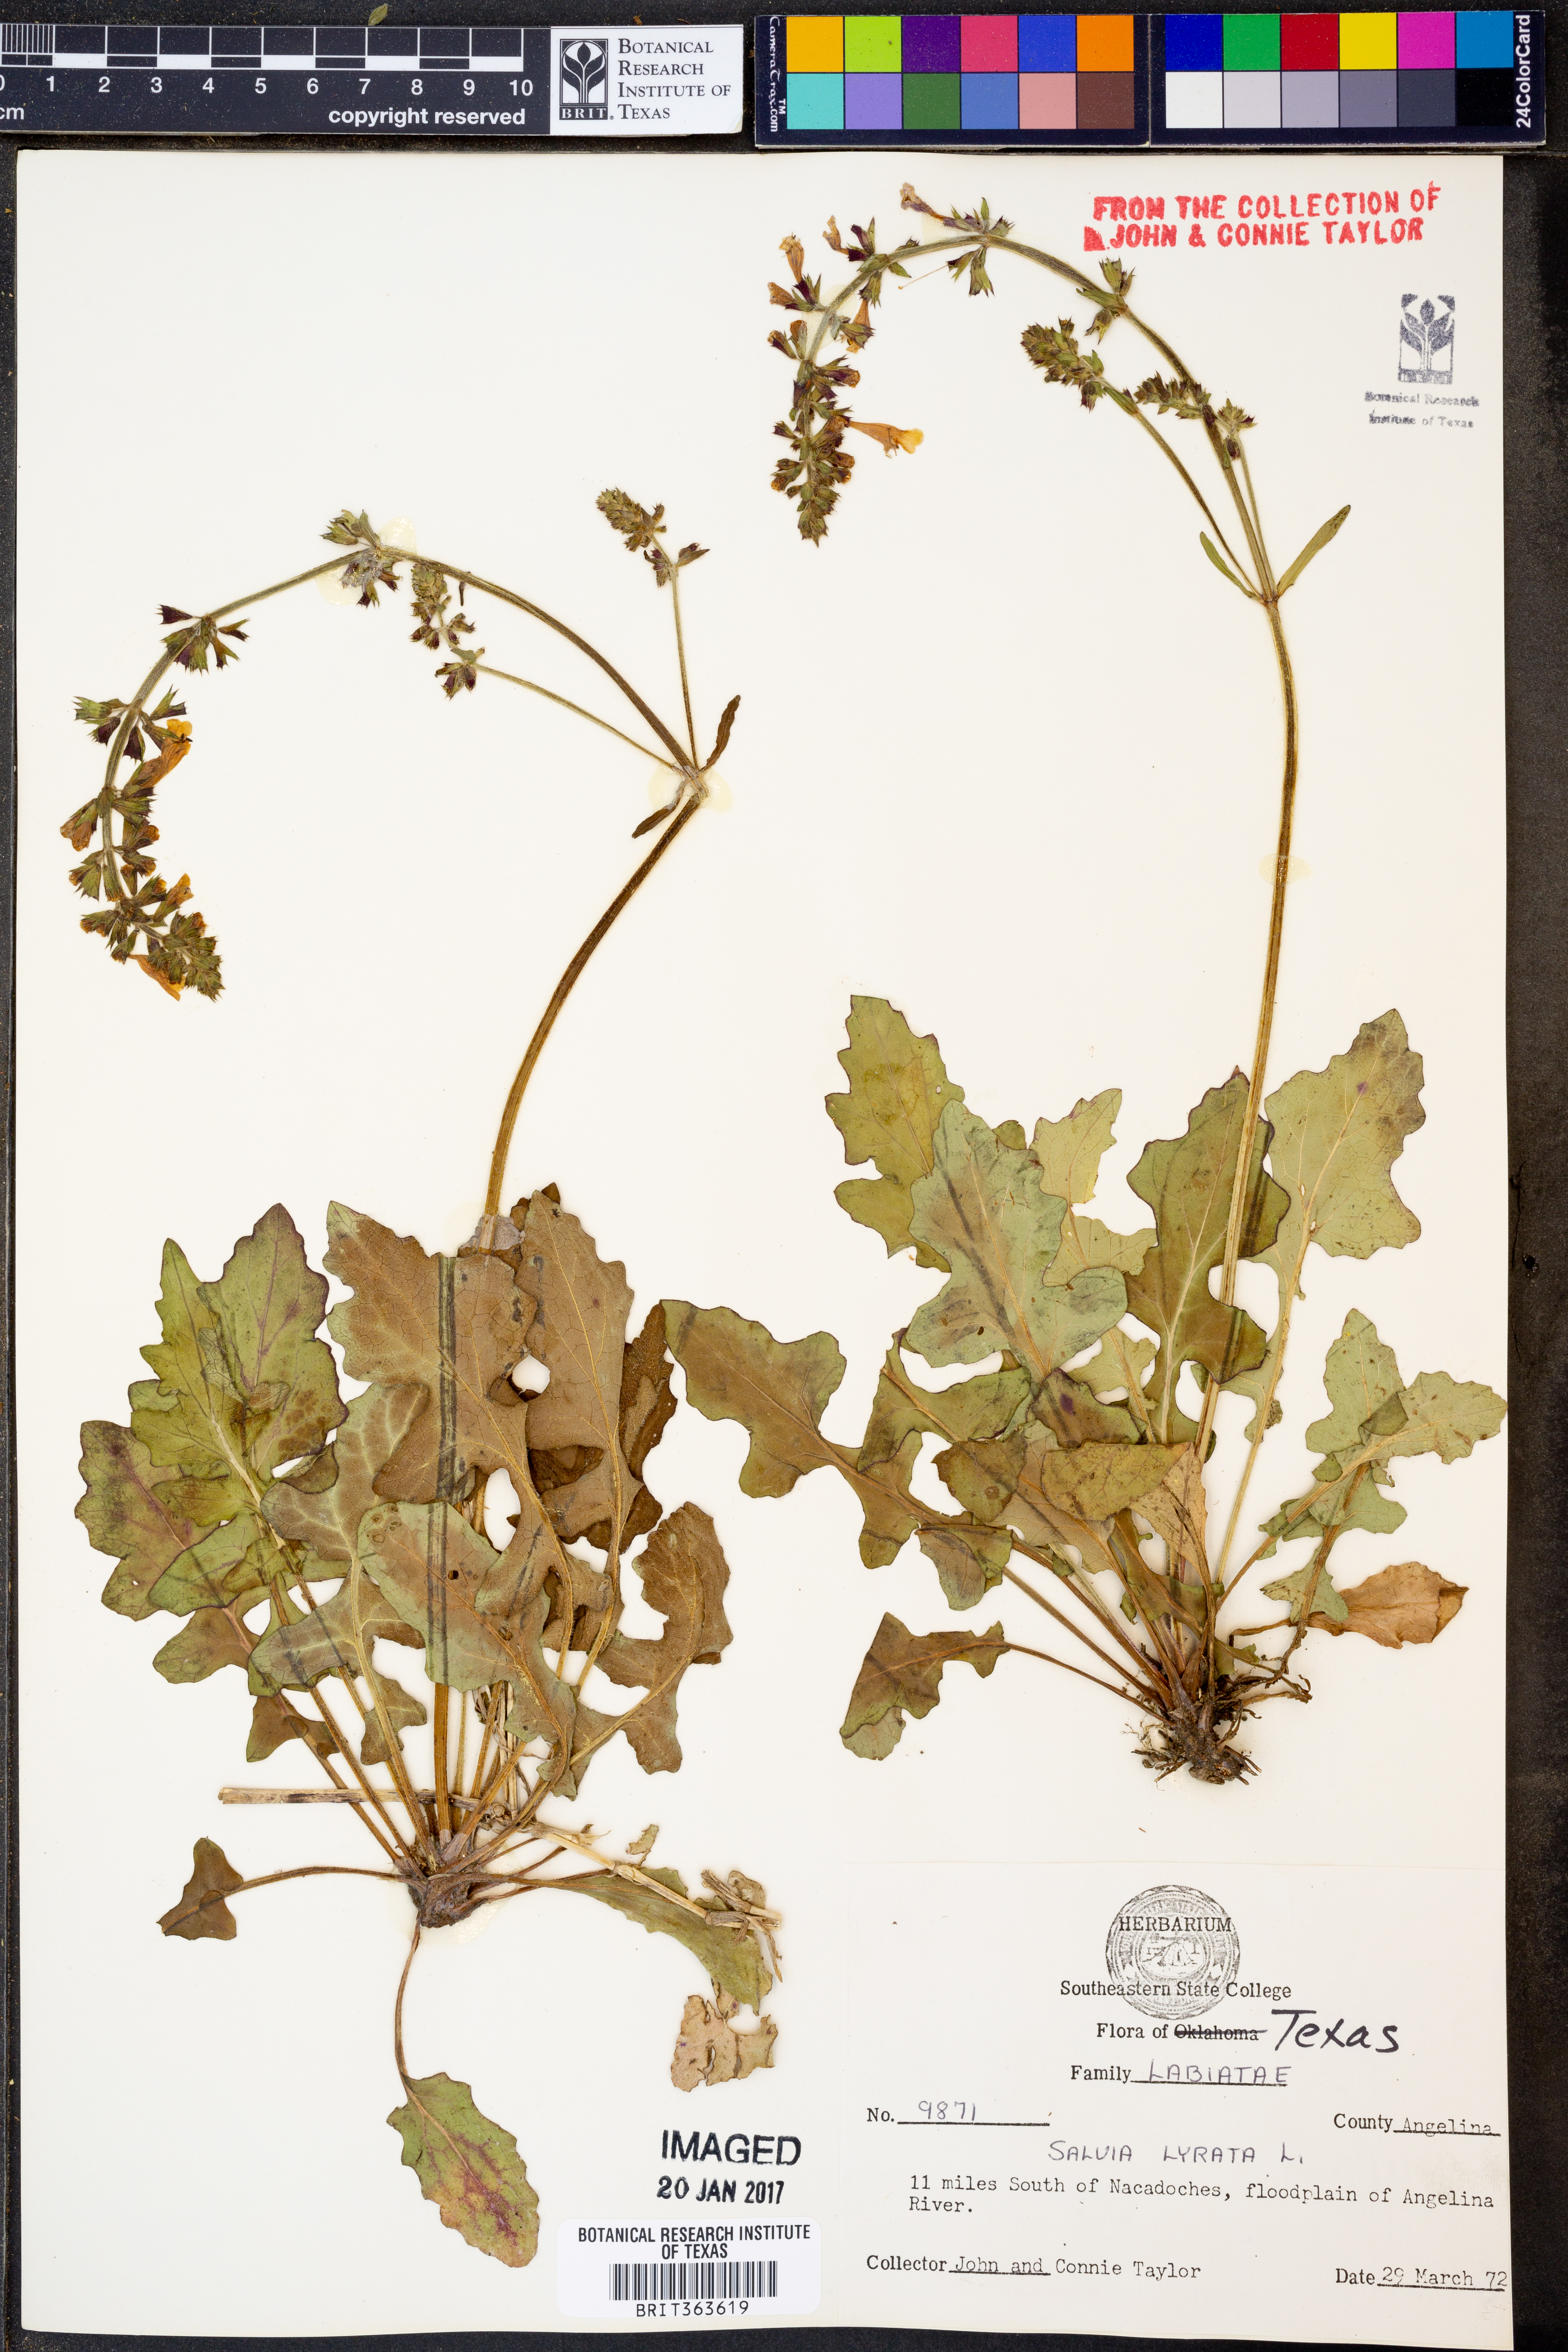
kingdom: Plantae
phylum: Tracheophyta
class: Magnoliopsida
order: Lamiales
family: Lamiaceae
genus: Salvia
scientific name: Salvia lyrata
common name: Cancerweed
